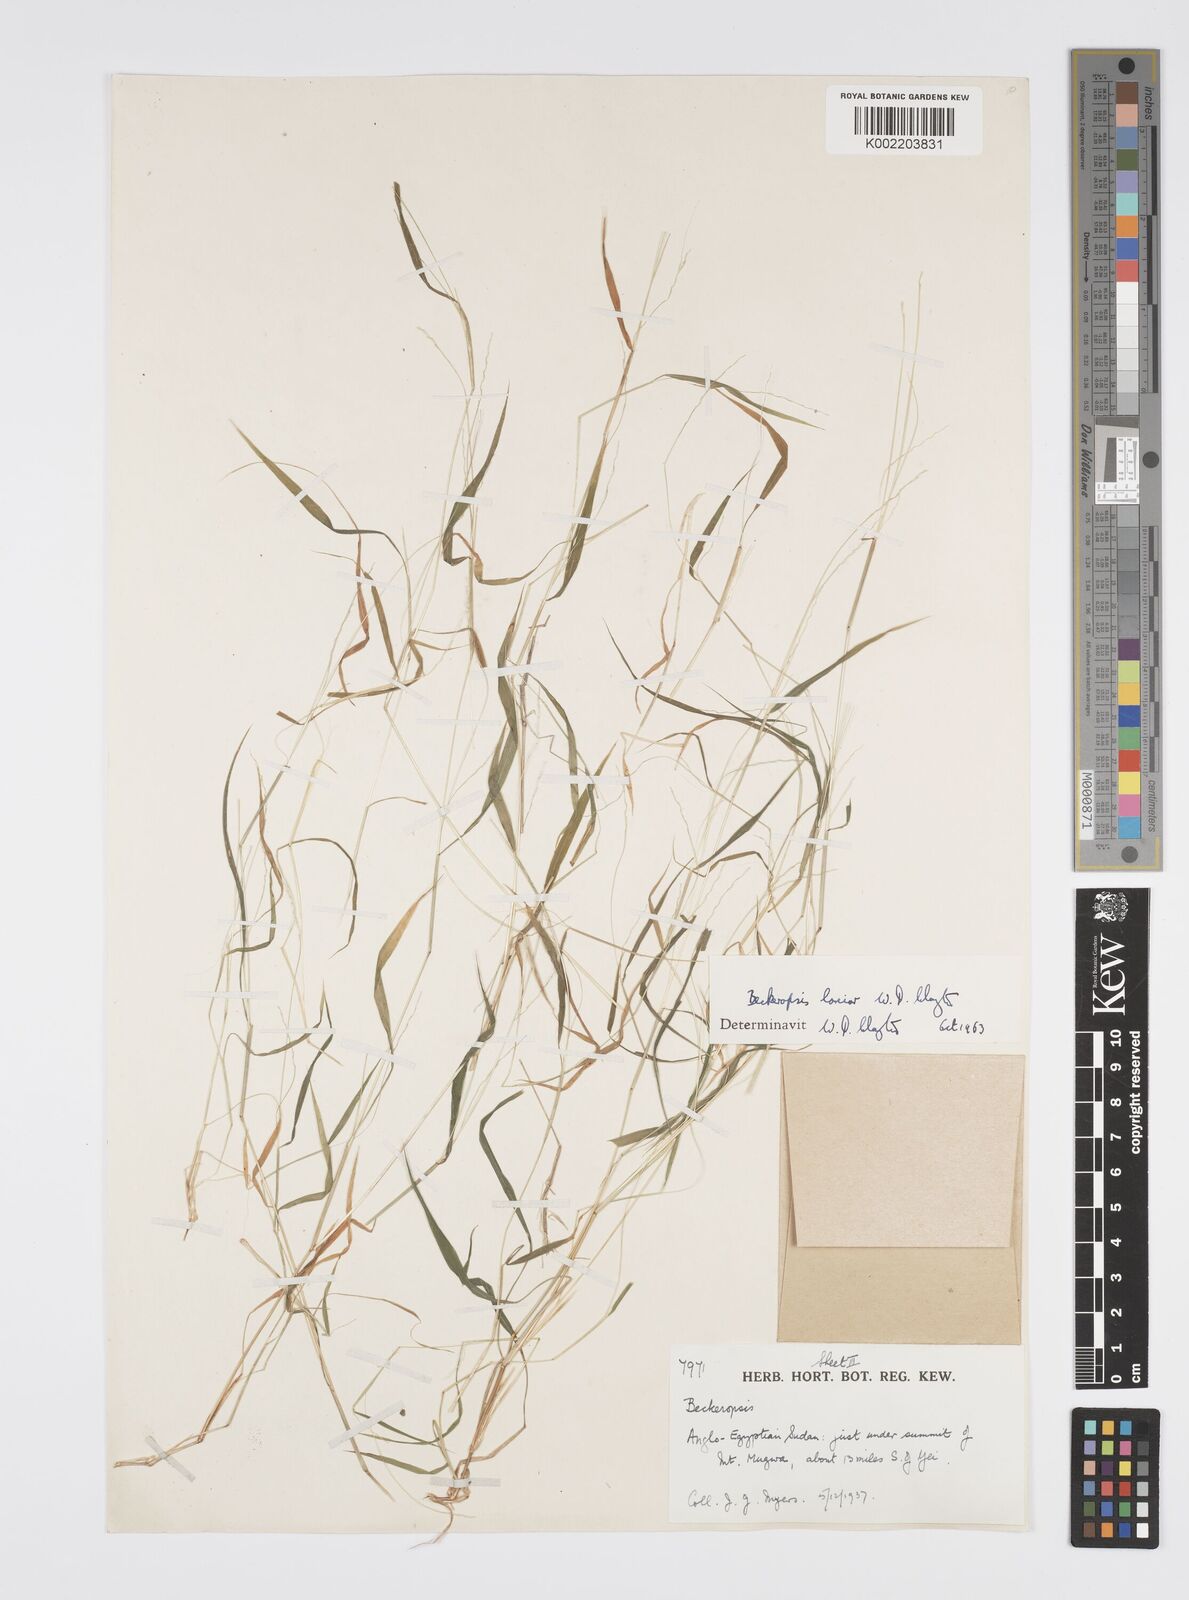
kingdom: Plantae
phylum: Tracheophyta
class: Liliopsida
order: Poales
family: Poaceae
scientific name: Poaceae
